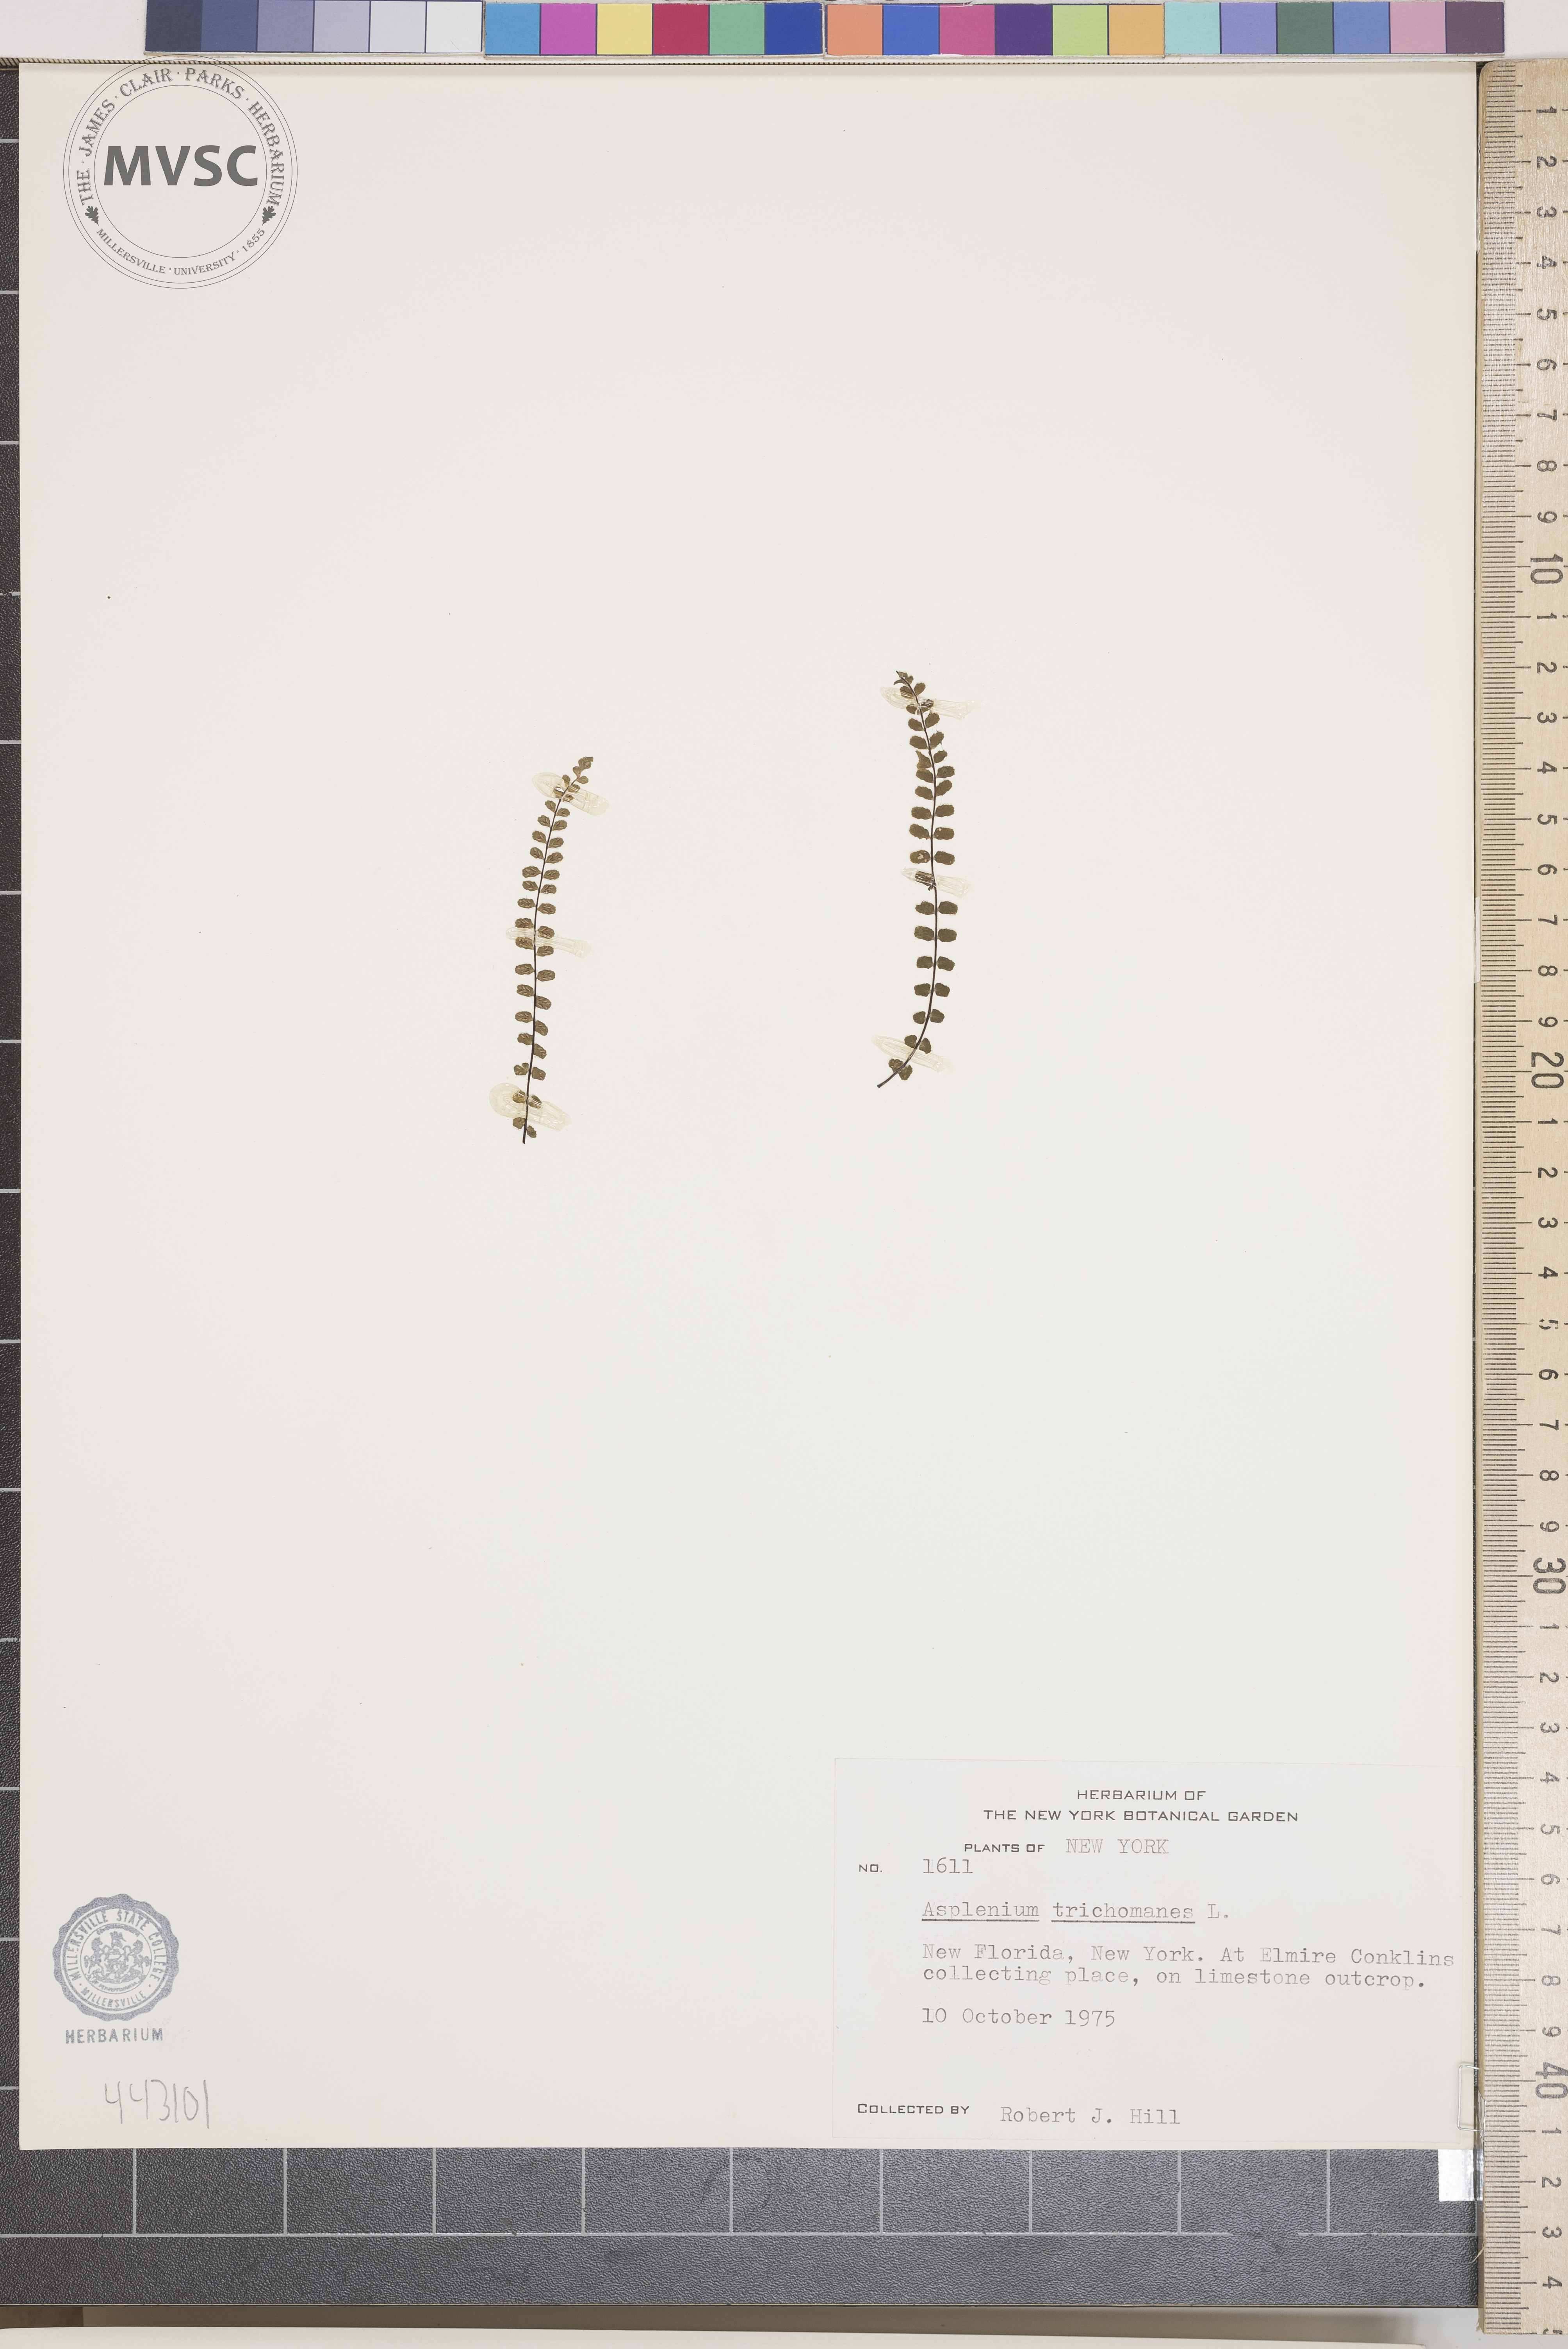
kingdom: Plantae
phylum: Tracheophyta
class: Polypodiopsida
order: Polypodiales
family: Aspleniaceae
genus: Asplenium
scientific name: Asplenium trichomanes
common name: Maidenhair spleenwort
